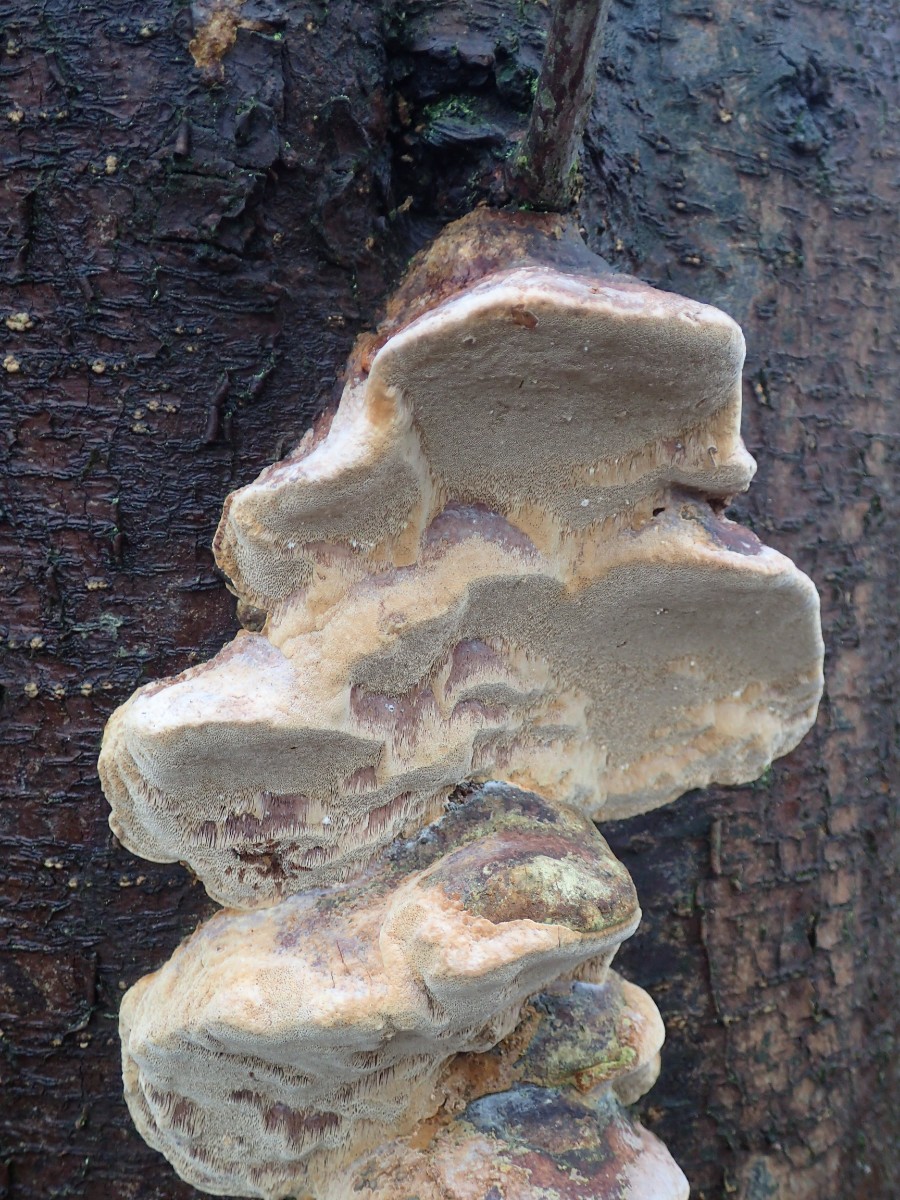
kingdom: Fungi
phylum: Basidiomycota
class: Agaricomycetes
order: Hymenochaetales
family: Hymenochaetaceae
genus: Phellinus
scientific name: Phellinus pomaceus
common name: blomme-ildporesvamp
